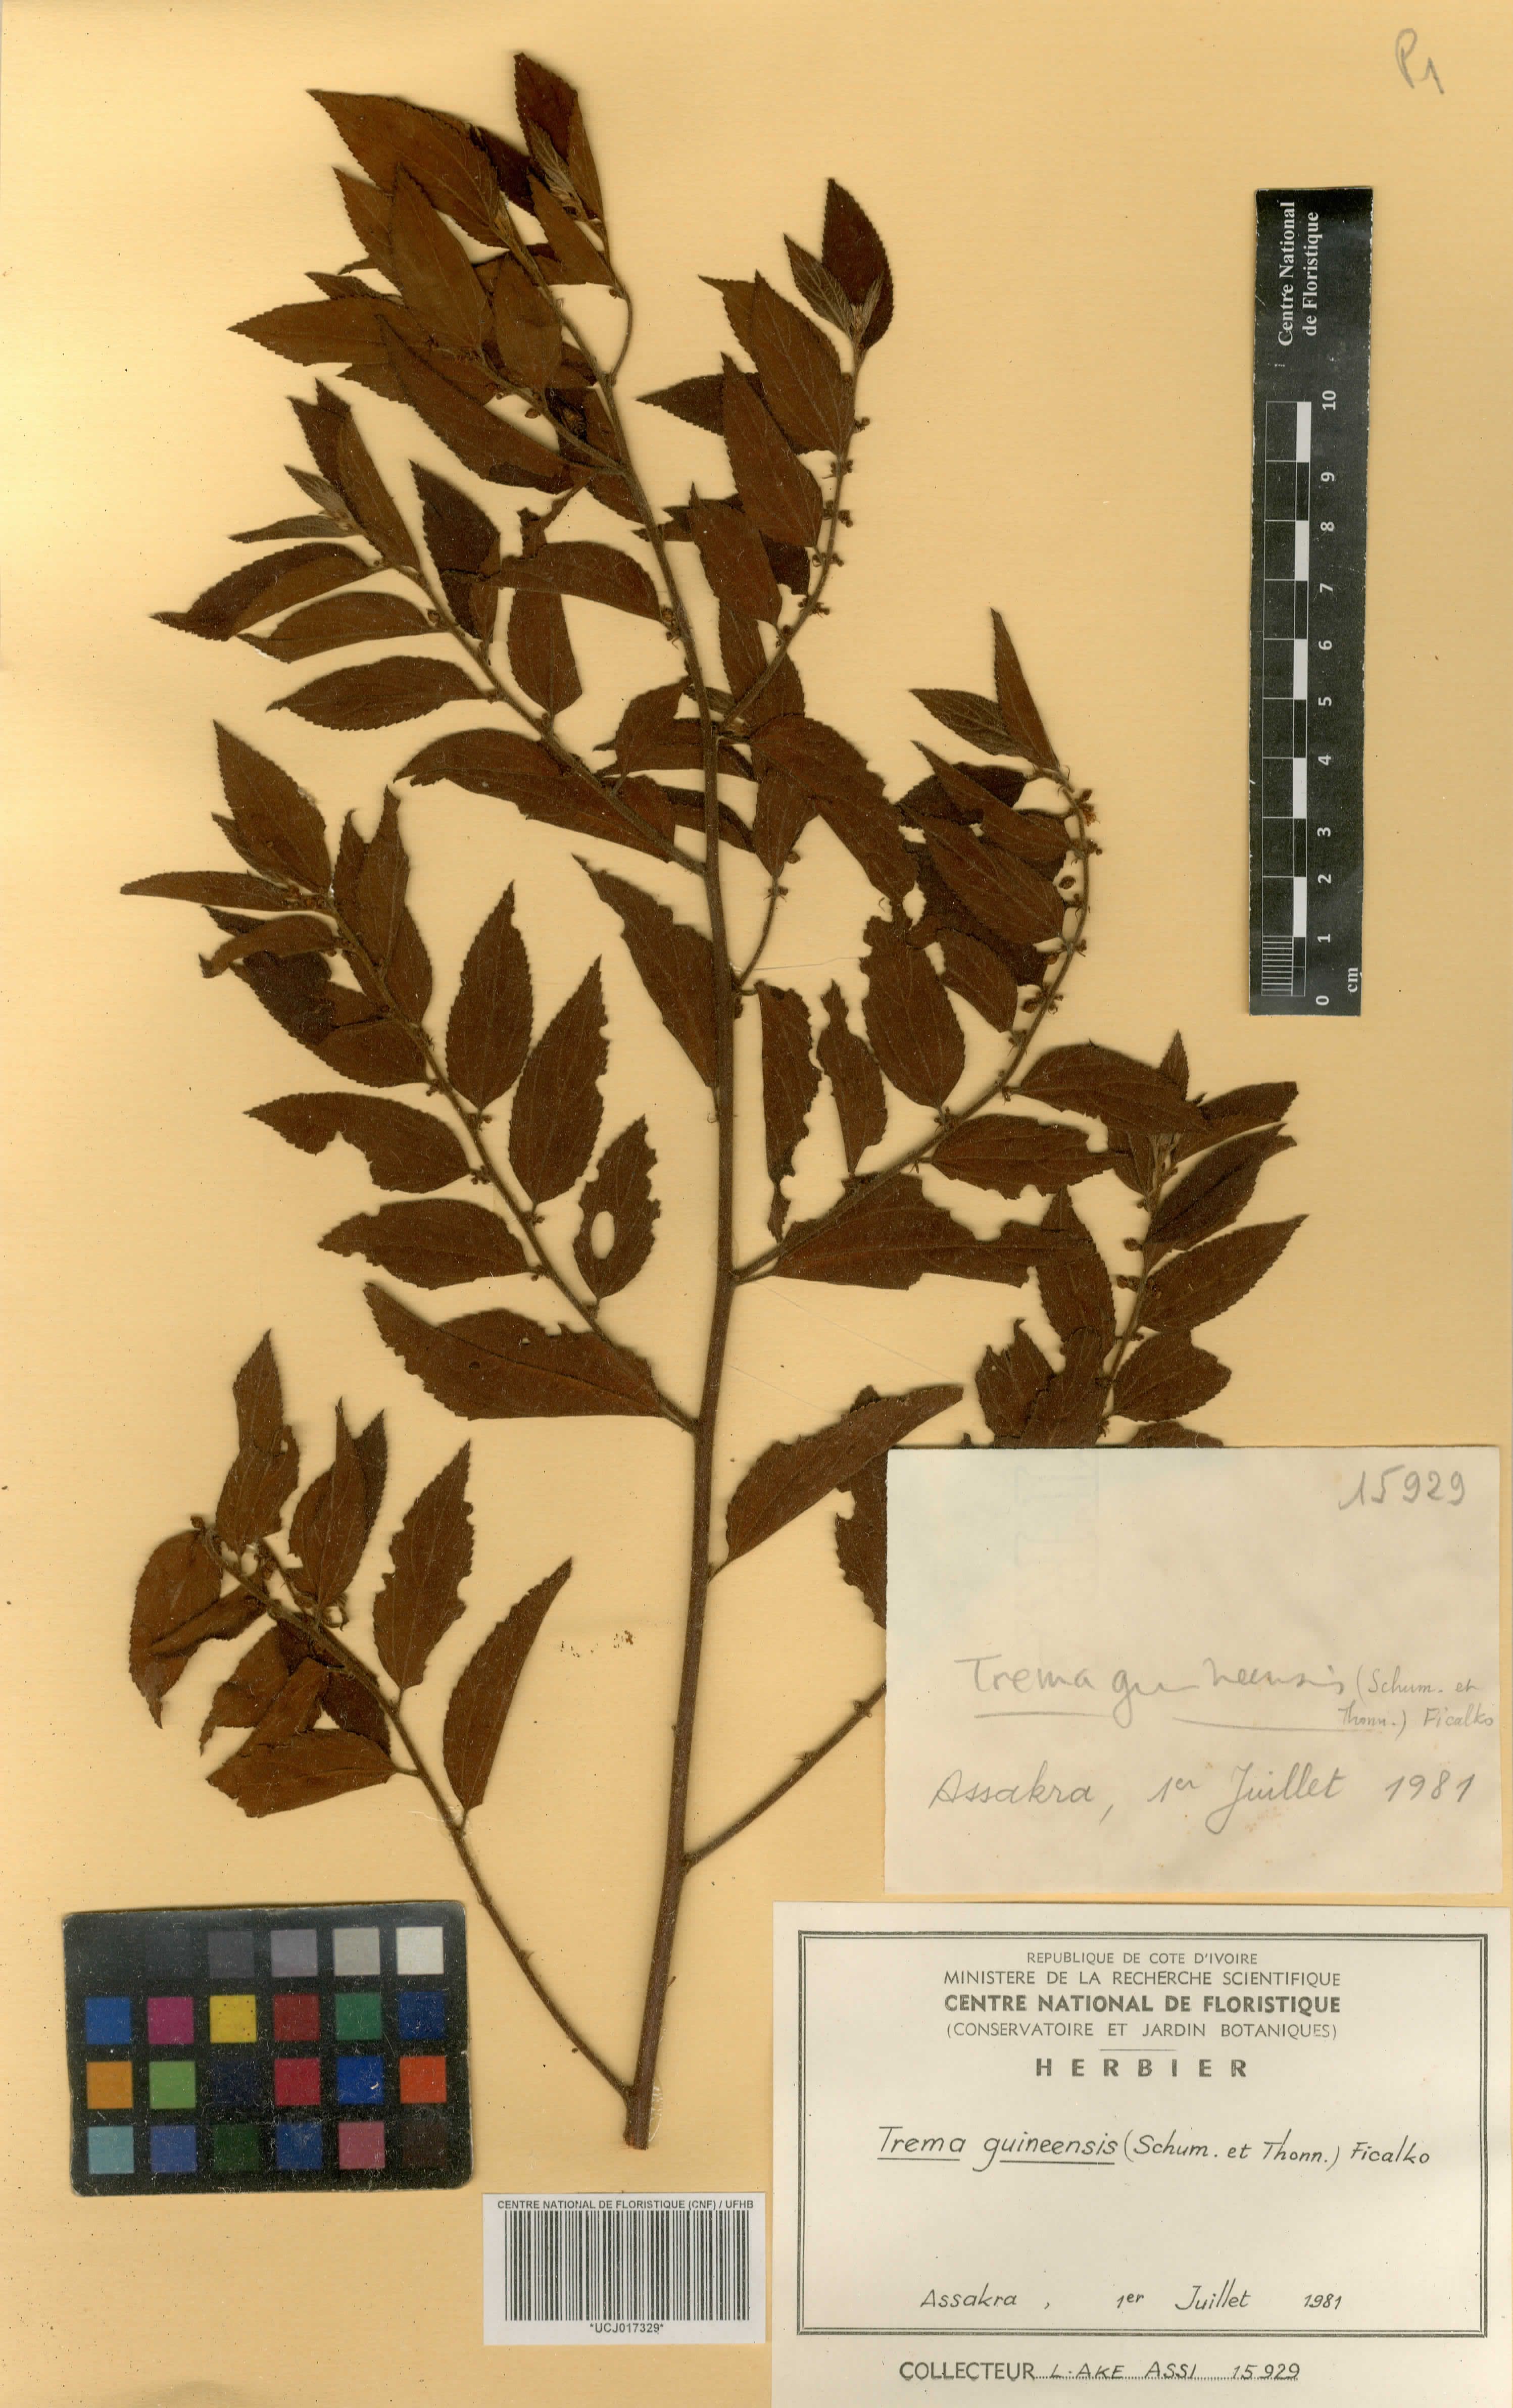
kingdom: Plantae
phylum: Tracheophyta
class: Magnoliopsida
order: Rosales
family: Cannabaceae
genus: Trema
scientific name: Trema orientale
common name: Indian charcoal tree
